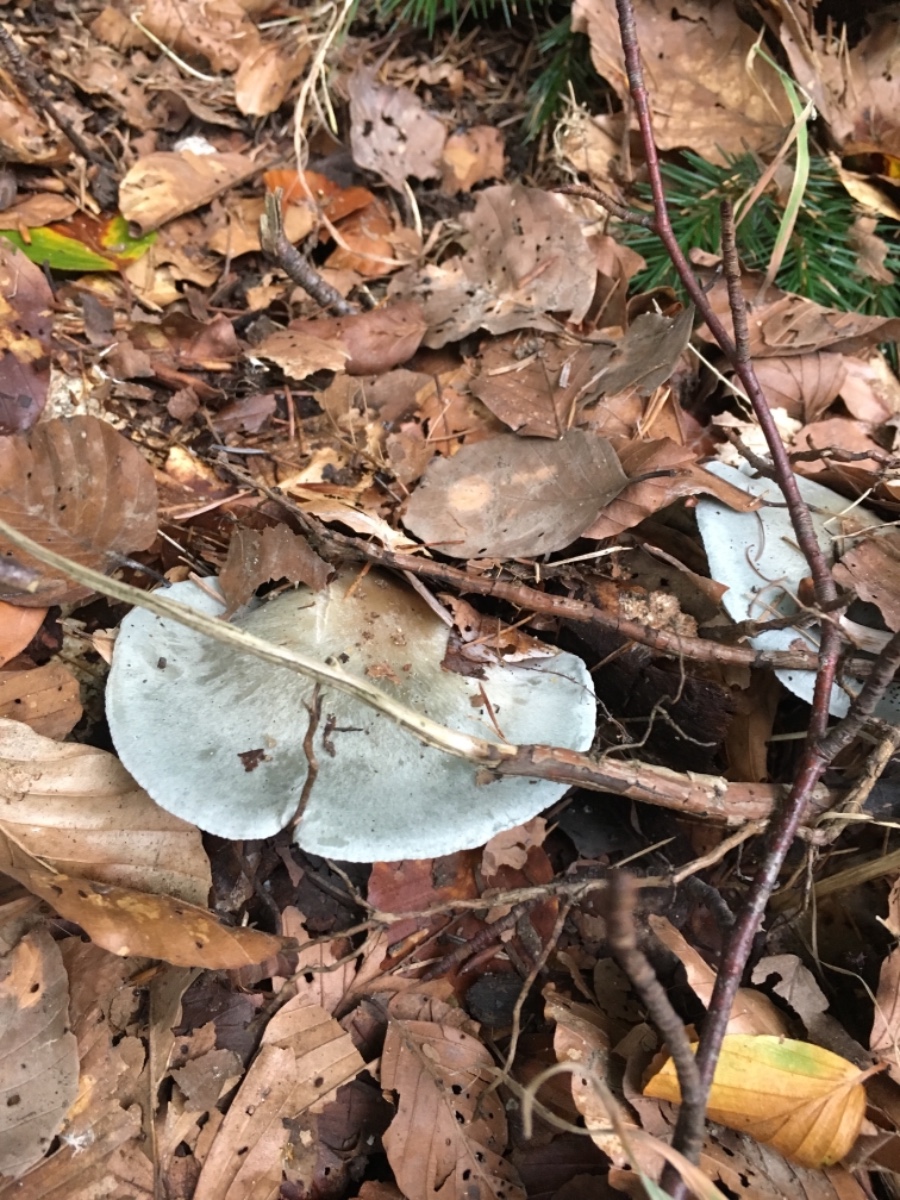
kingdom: Fungi
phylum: Basidiomycota
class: Agaricomycetes
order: Agaricales
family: Tricholomataceae
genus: Clitocybe
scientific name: Clitocybe odora
